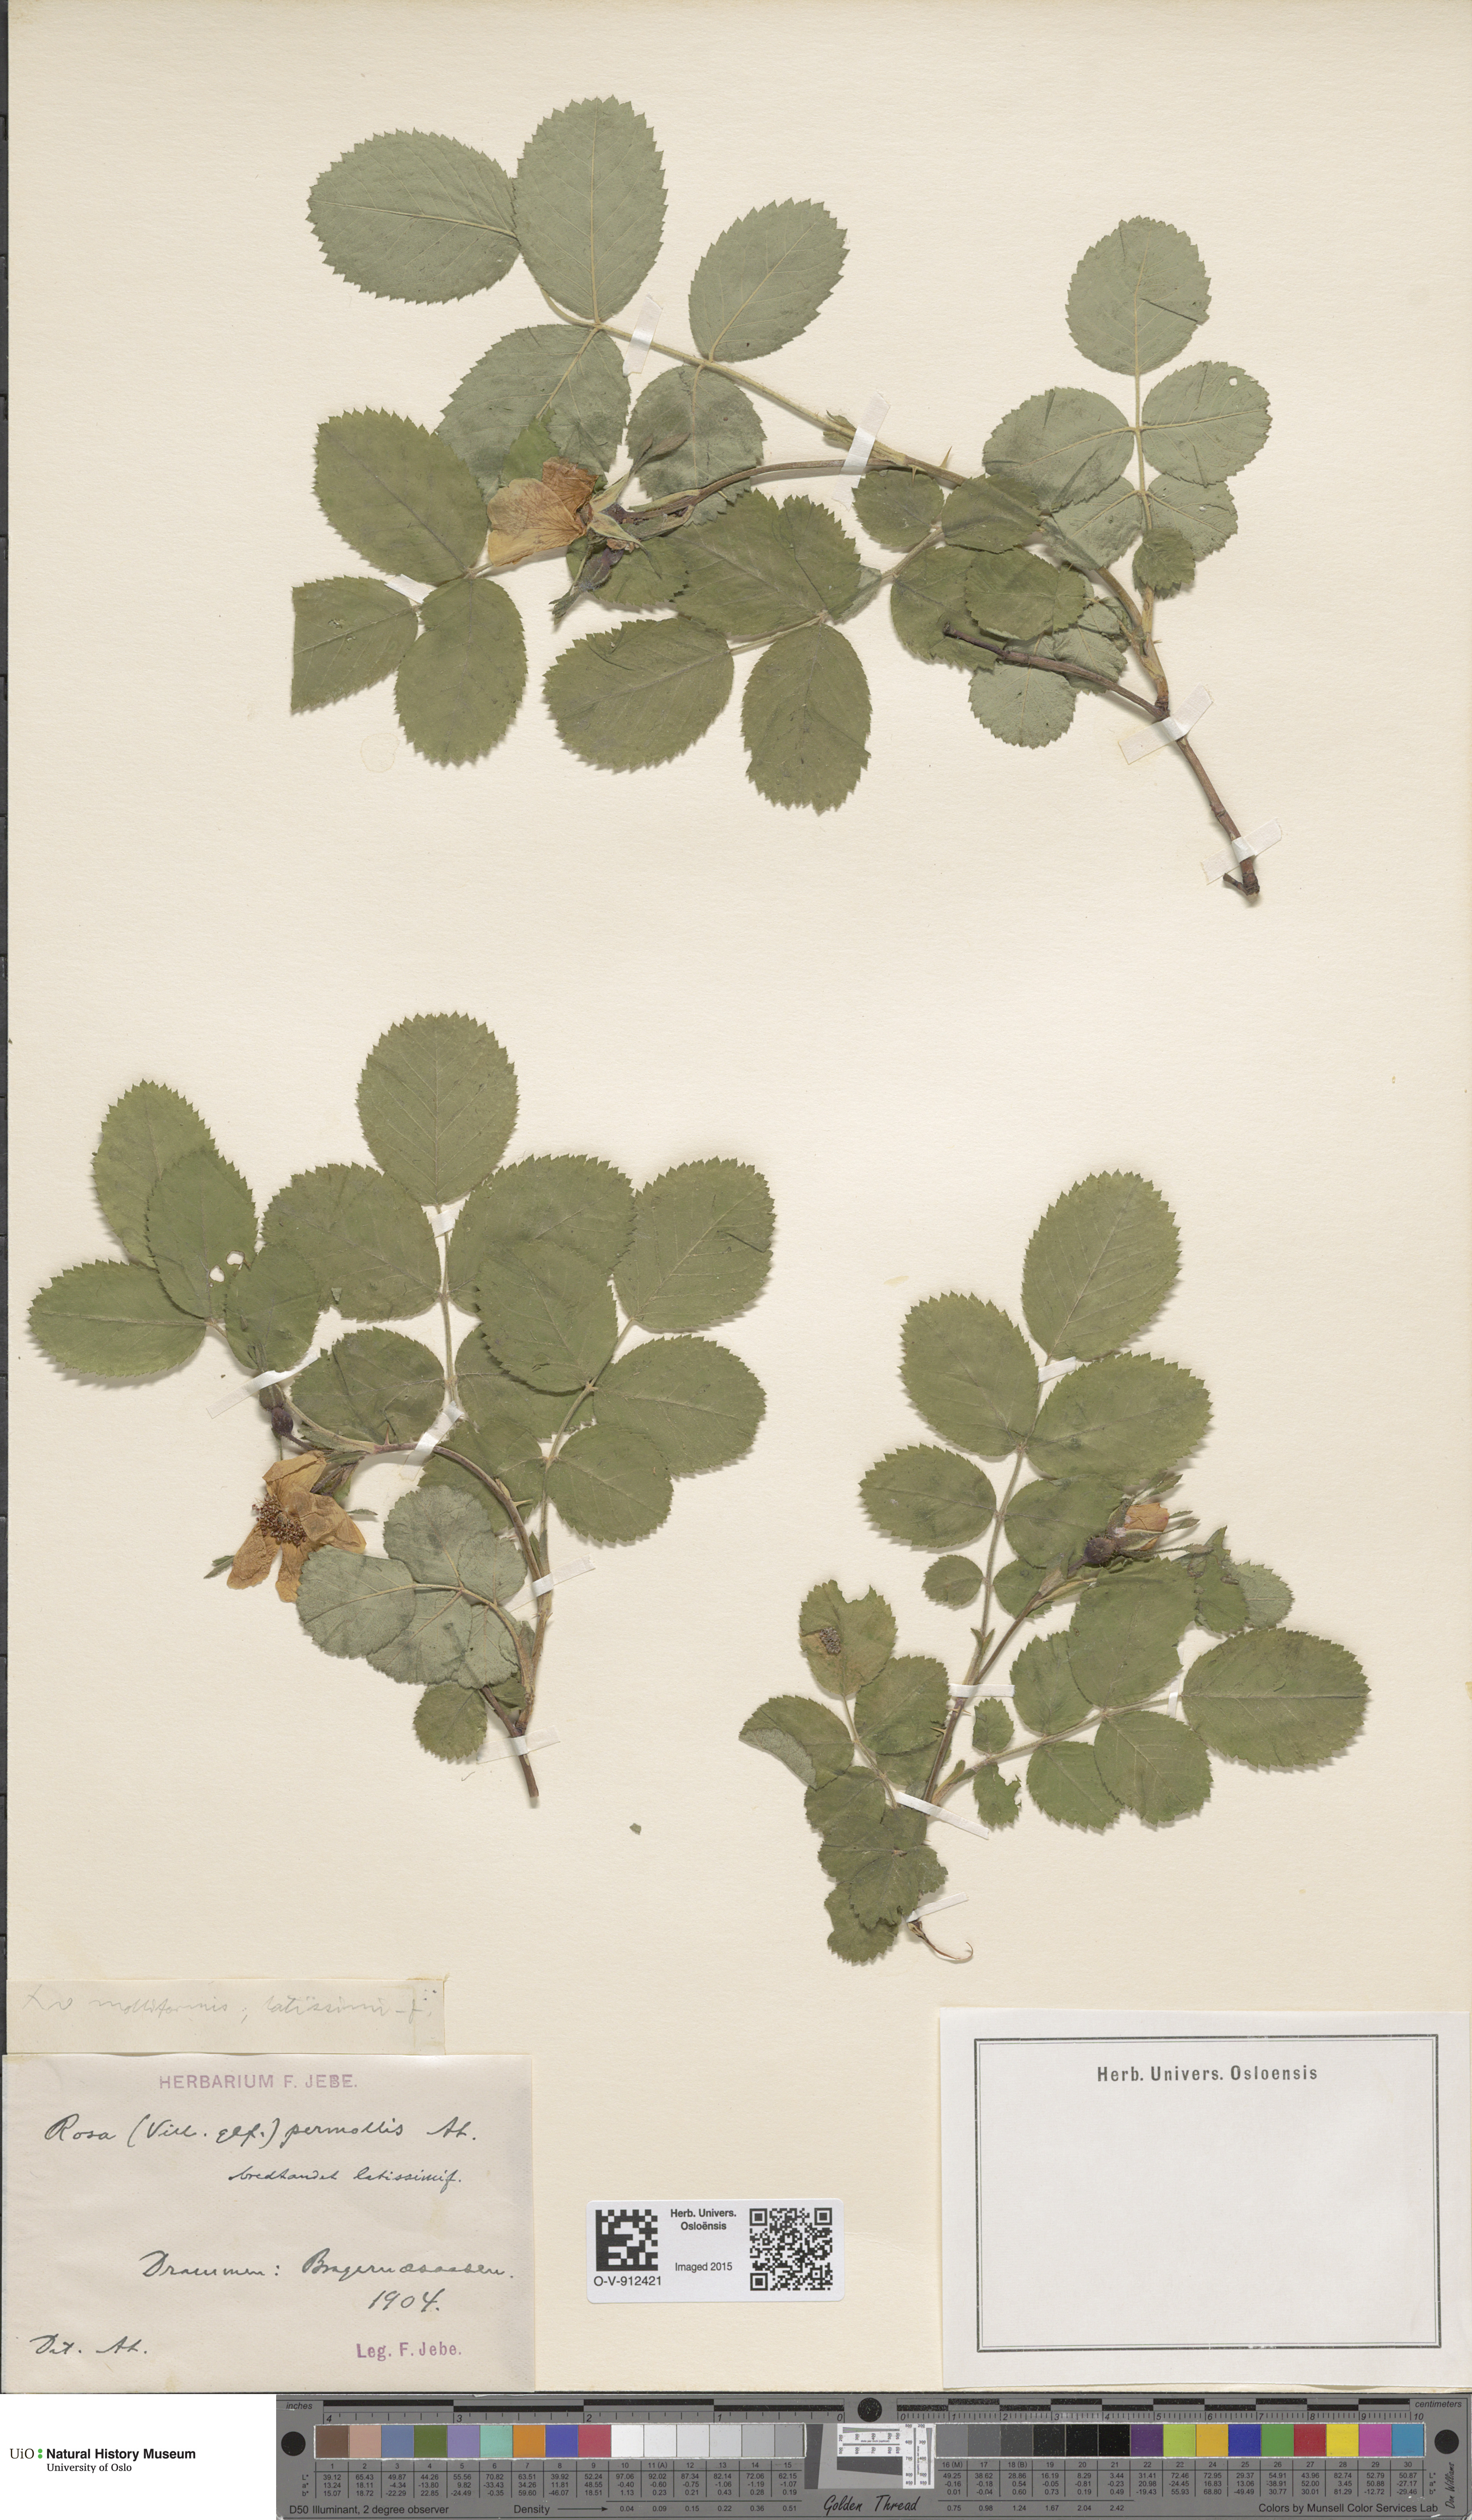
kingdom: Plantae
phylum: Tracheophyta
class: Magnoliopsida
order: Rosales
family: Rosaceae
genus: Rosa
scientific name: Rosa mollis
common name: Rose
